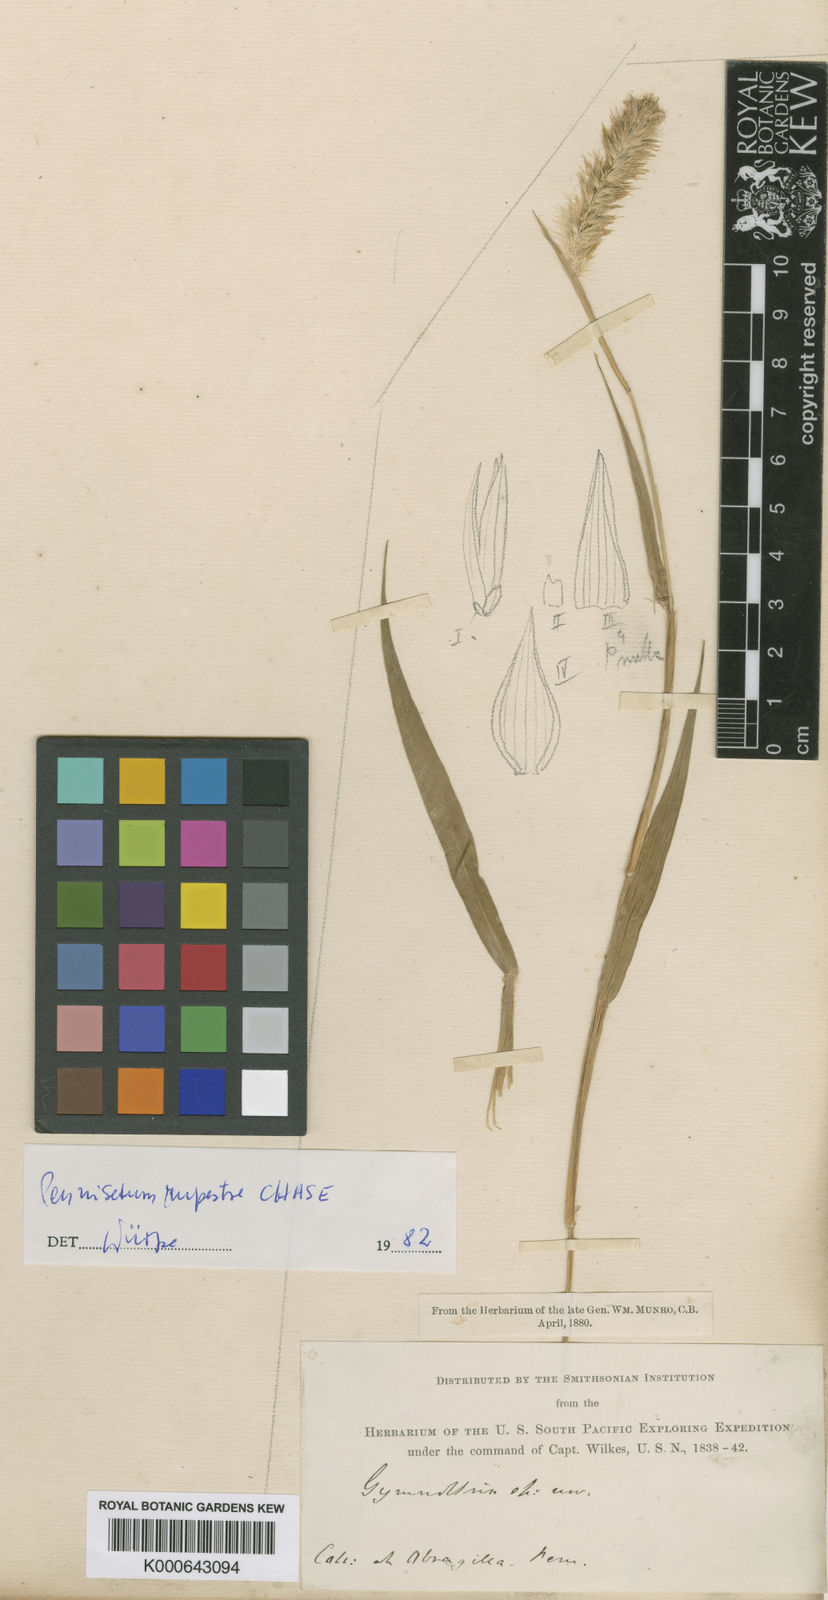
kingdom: Plantae
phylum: Tracheophyta
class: Liliopsida
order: Poales
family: Poaceae
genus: Cenchrus
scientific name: Cenchrus rupestris
